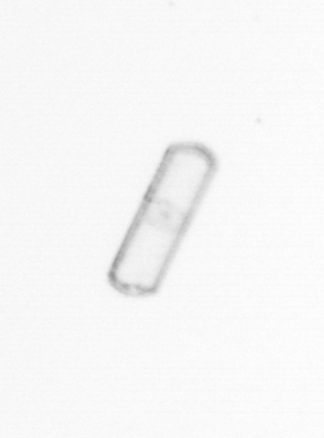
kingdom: Chromista
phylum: Ochrophyta
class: Bacillariophyceae
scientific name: Bacillariophyceae
